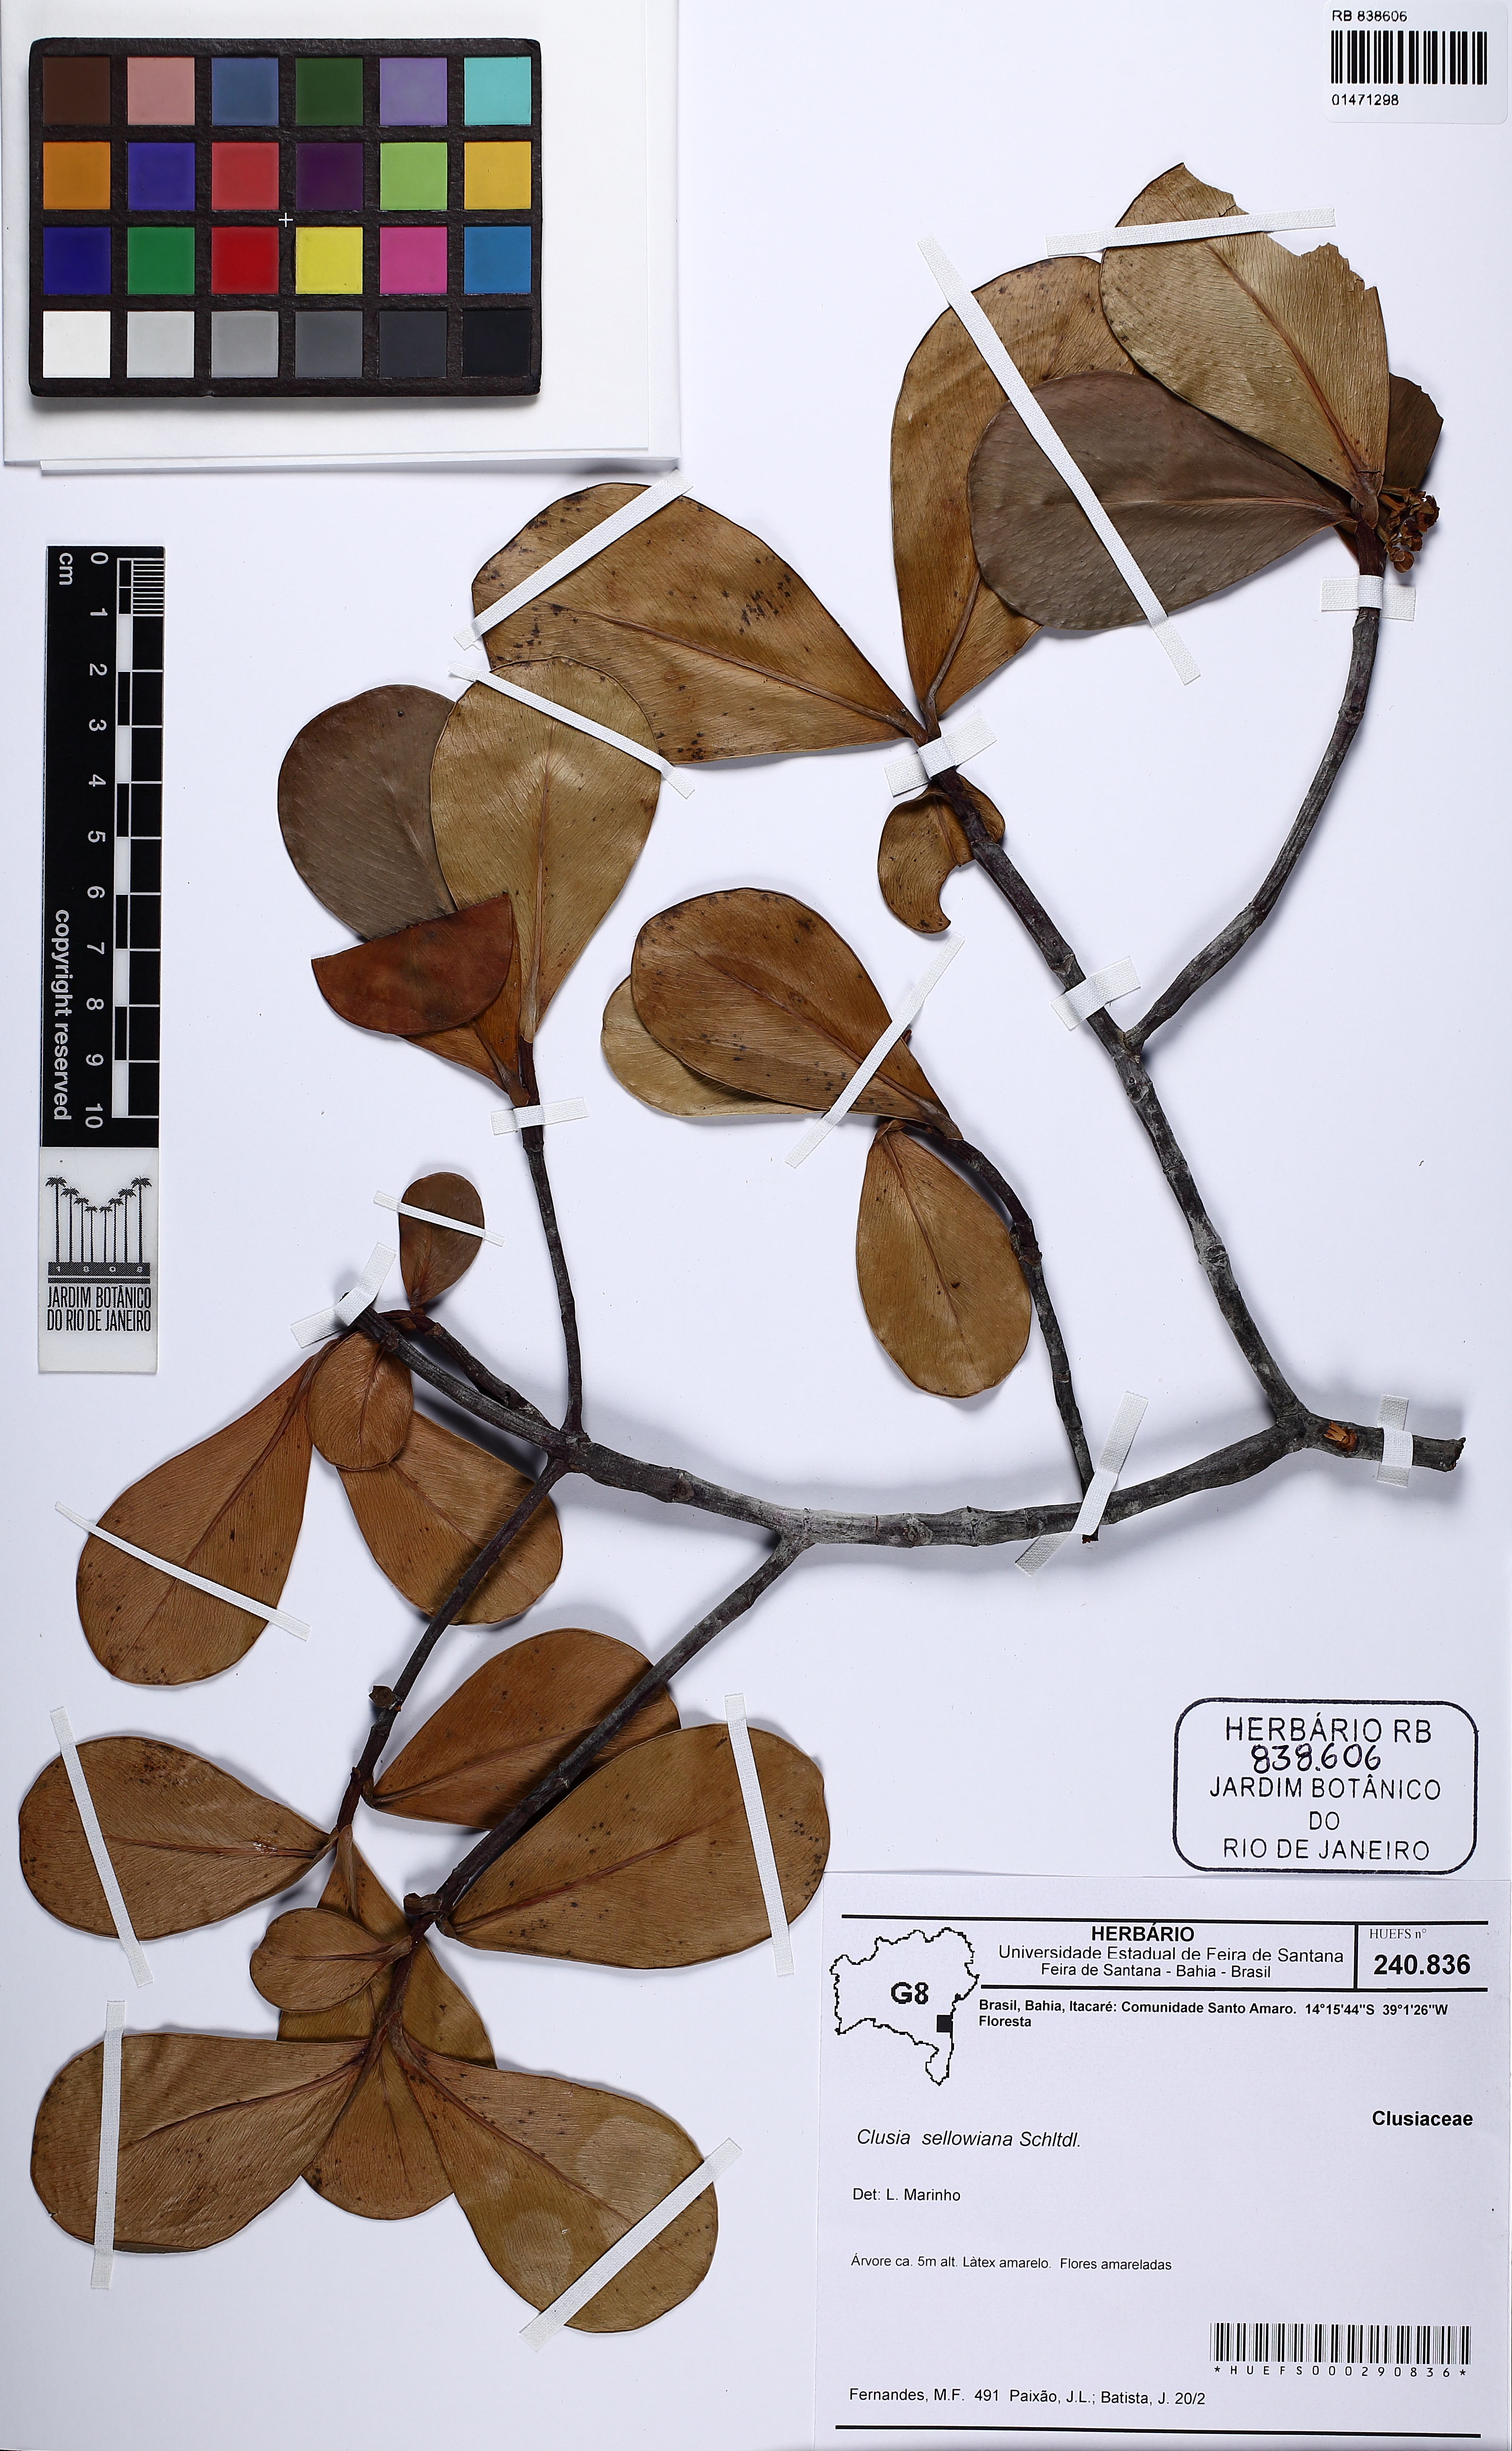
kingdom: Plantae
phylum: Tracheophyta
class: Magnoliopsida
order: Malpighiales
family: Clusiaceae
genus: Clusia
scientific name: Clusia sellowiana
